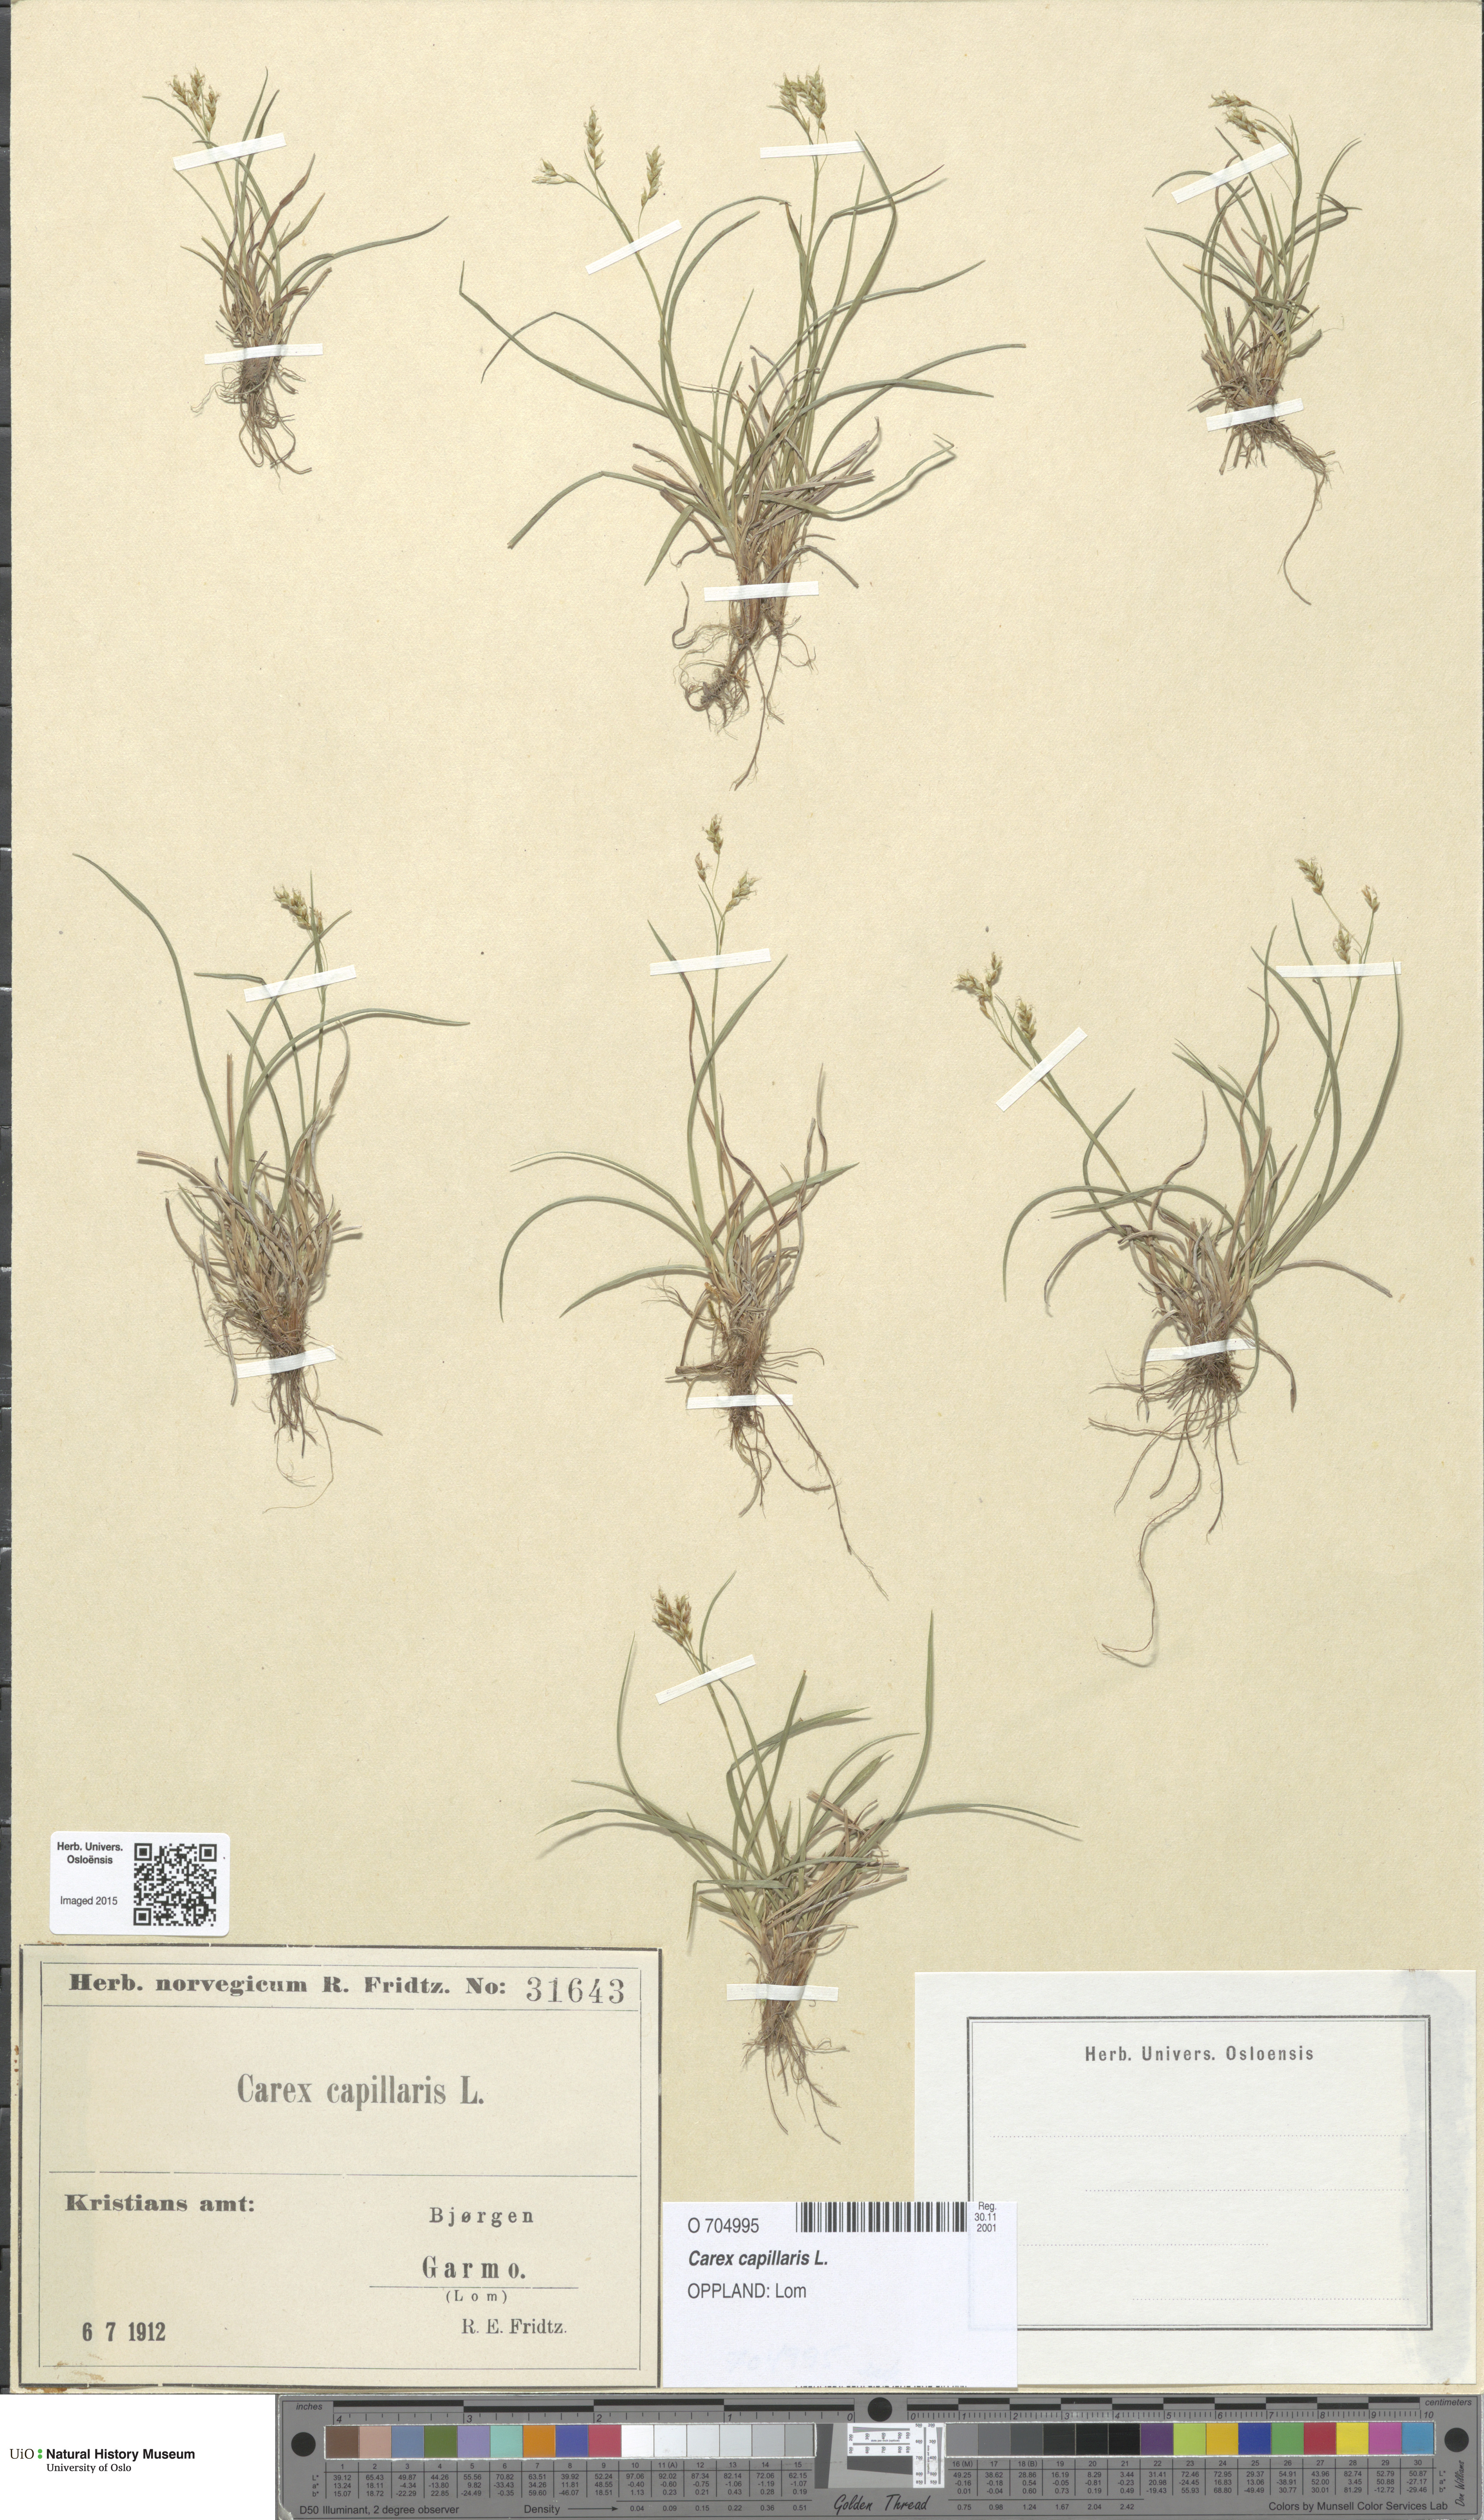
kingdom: Plantae
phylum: Tracheophyta
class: Liliopsida
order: Poales
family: Cyperaceae
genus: Carex
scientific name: Carex capillaris
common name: Hair sedge
